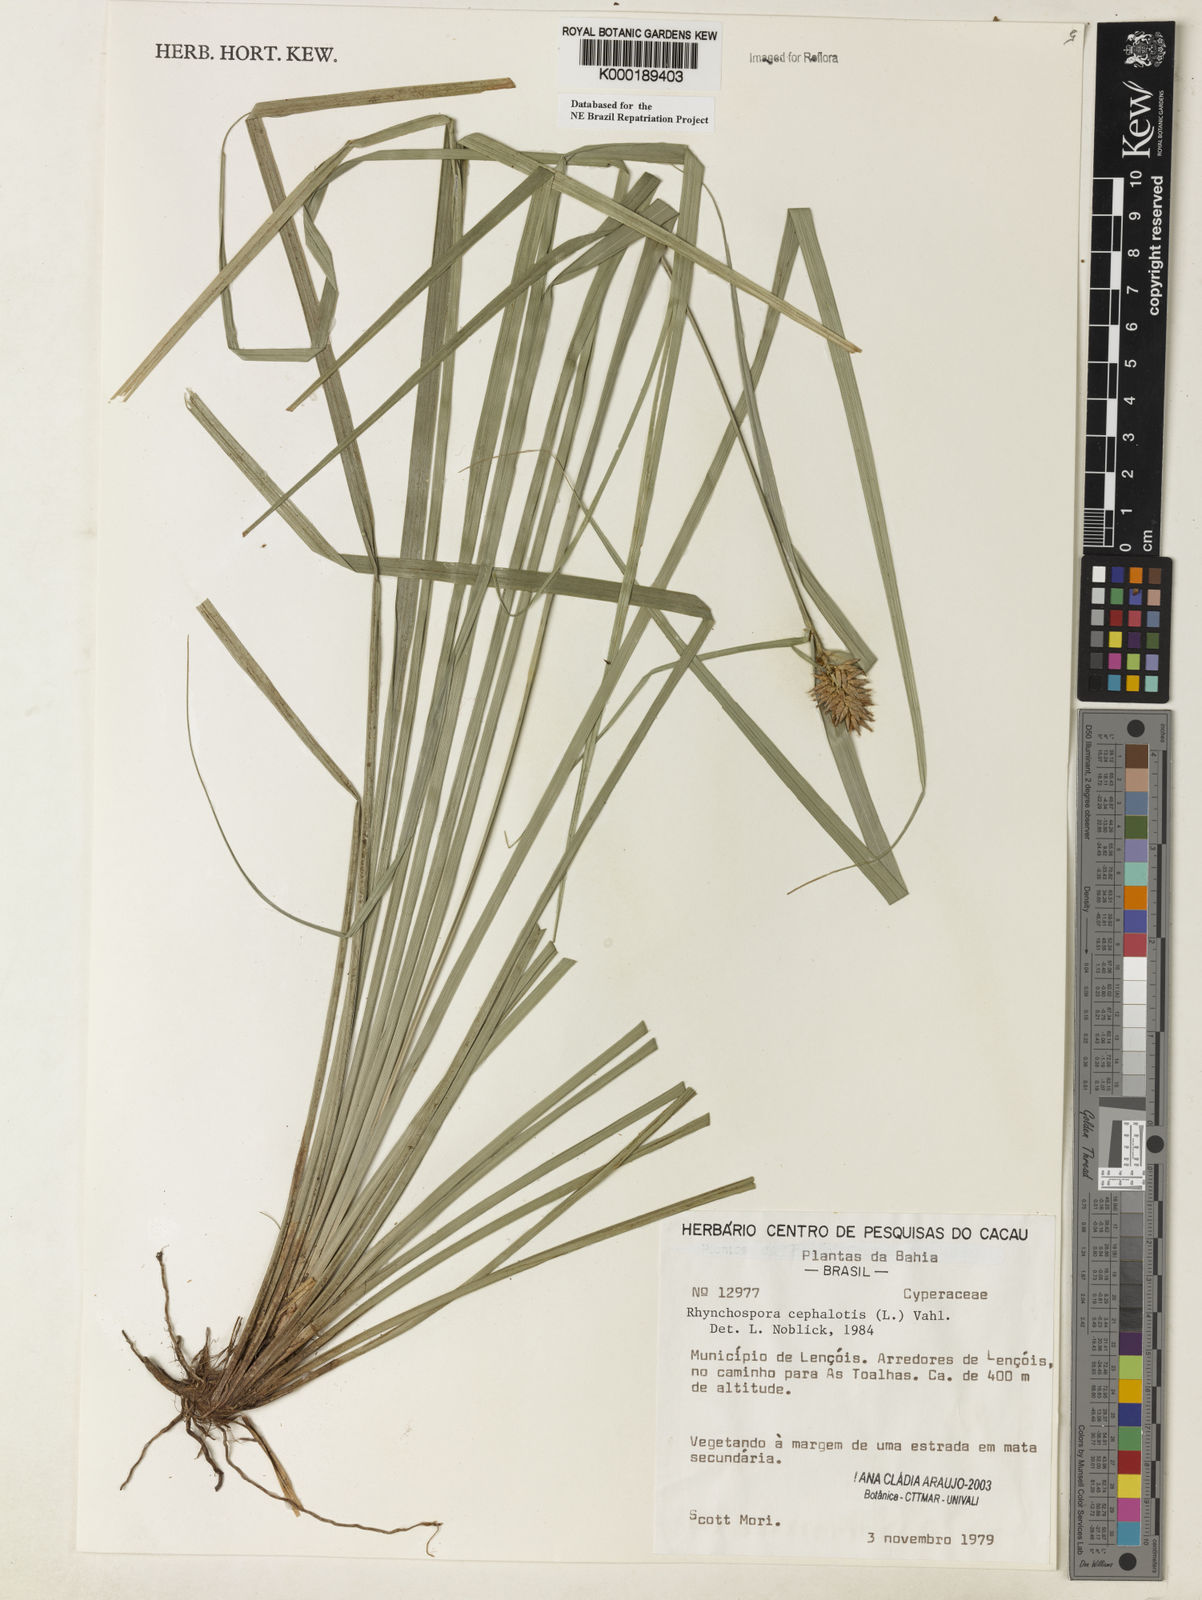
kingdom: Plantae
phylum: Tracheophyta
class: Liliopsida
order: Poales
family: Cyperaceae
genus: Rhynchospora
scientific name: Rhynchospora cephalotes
